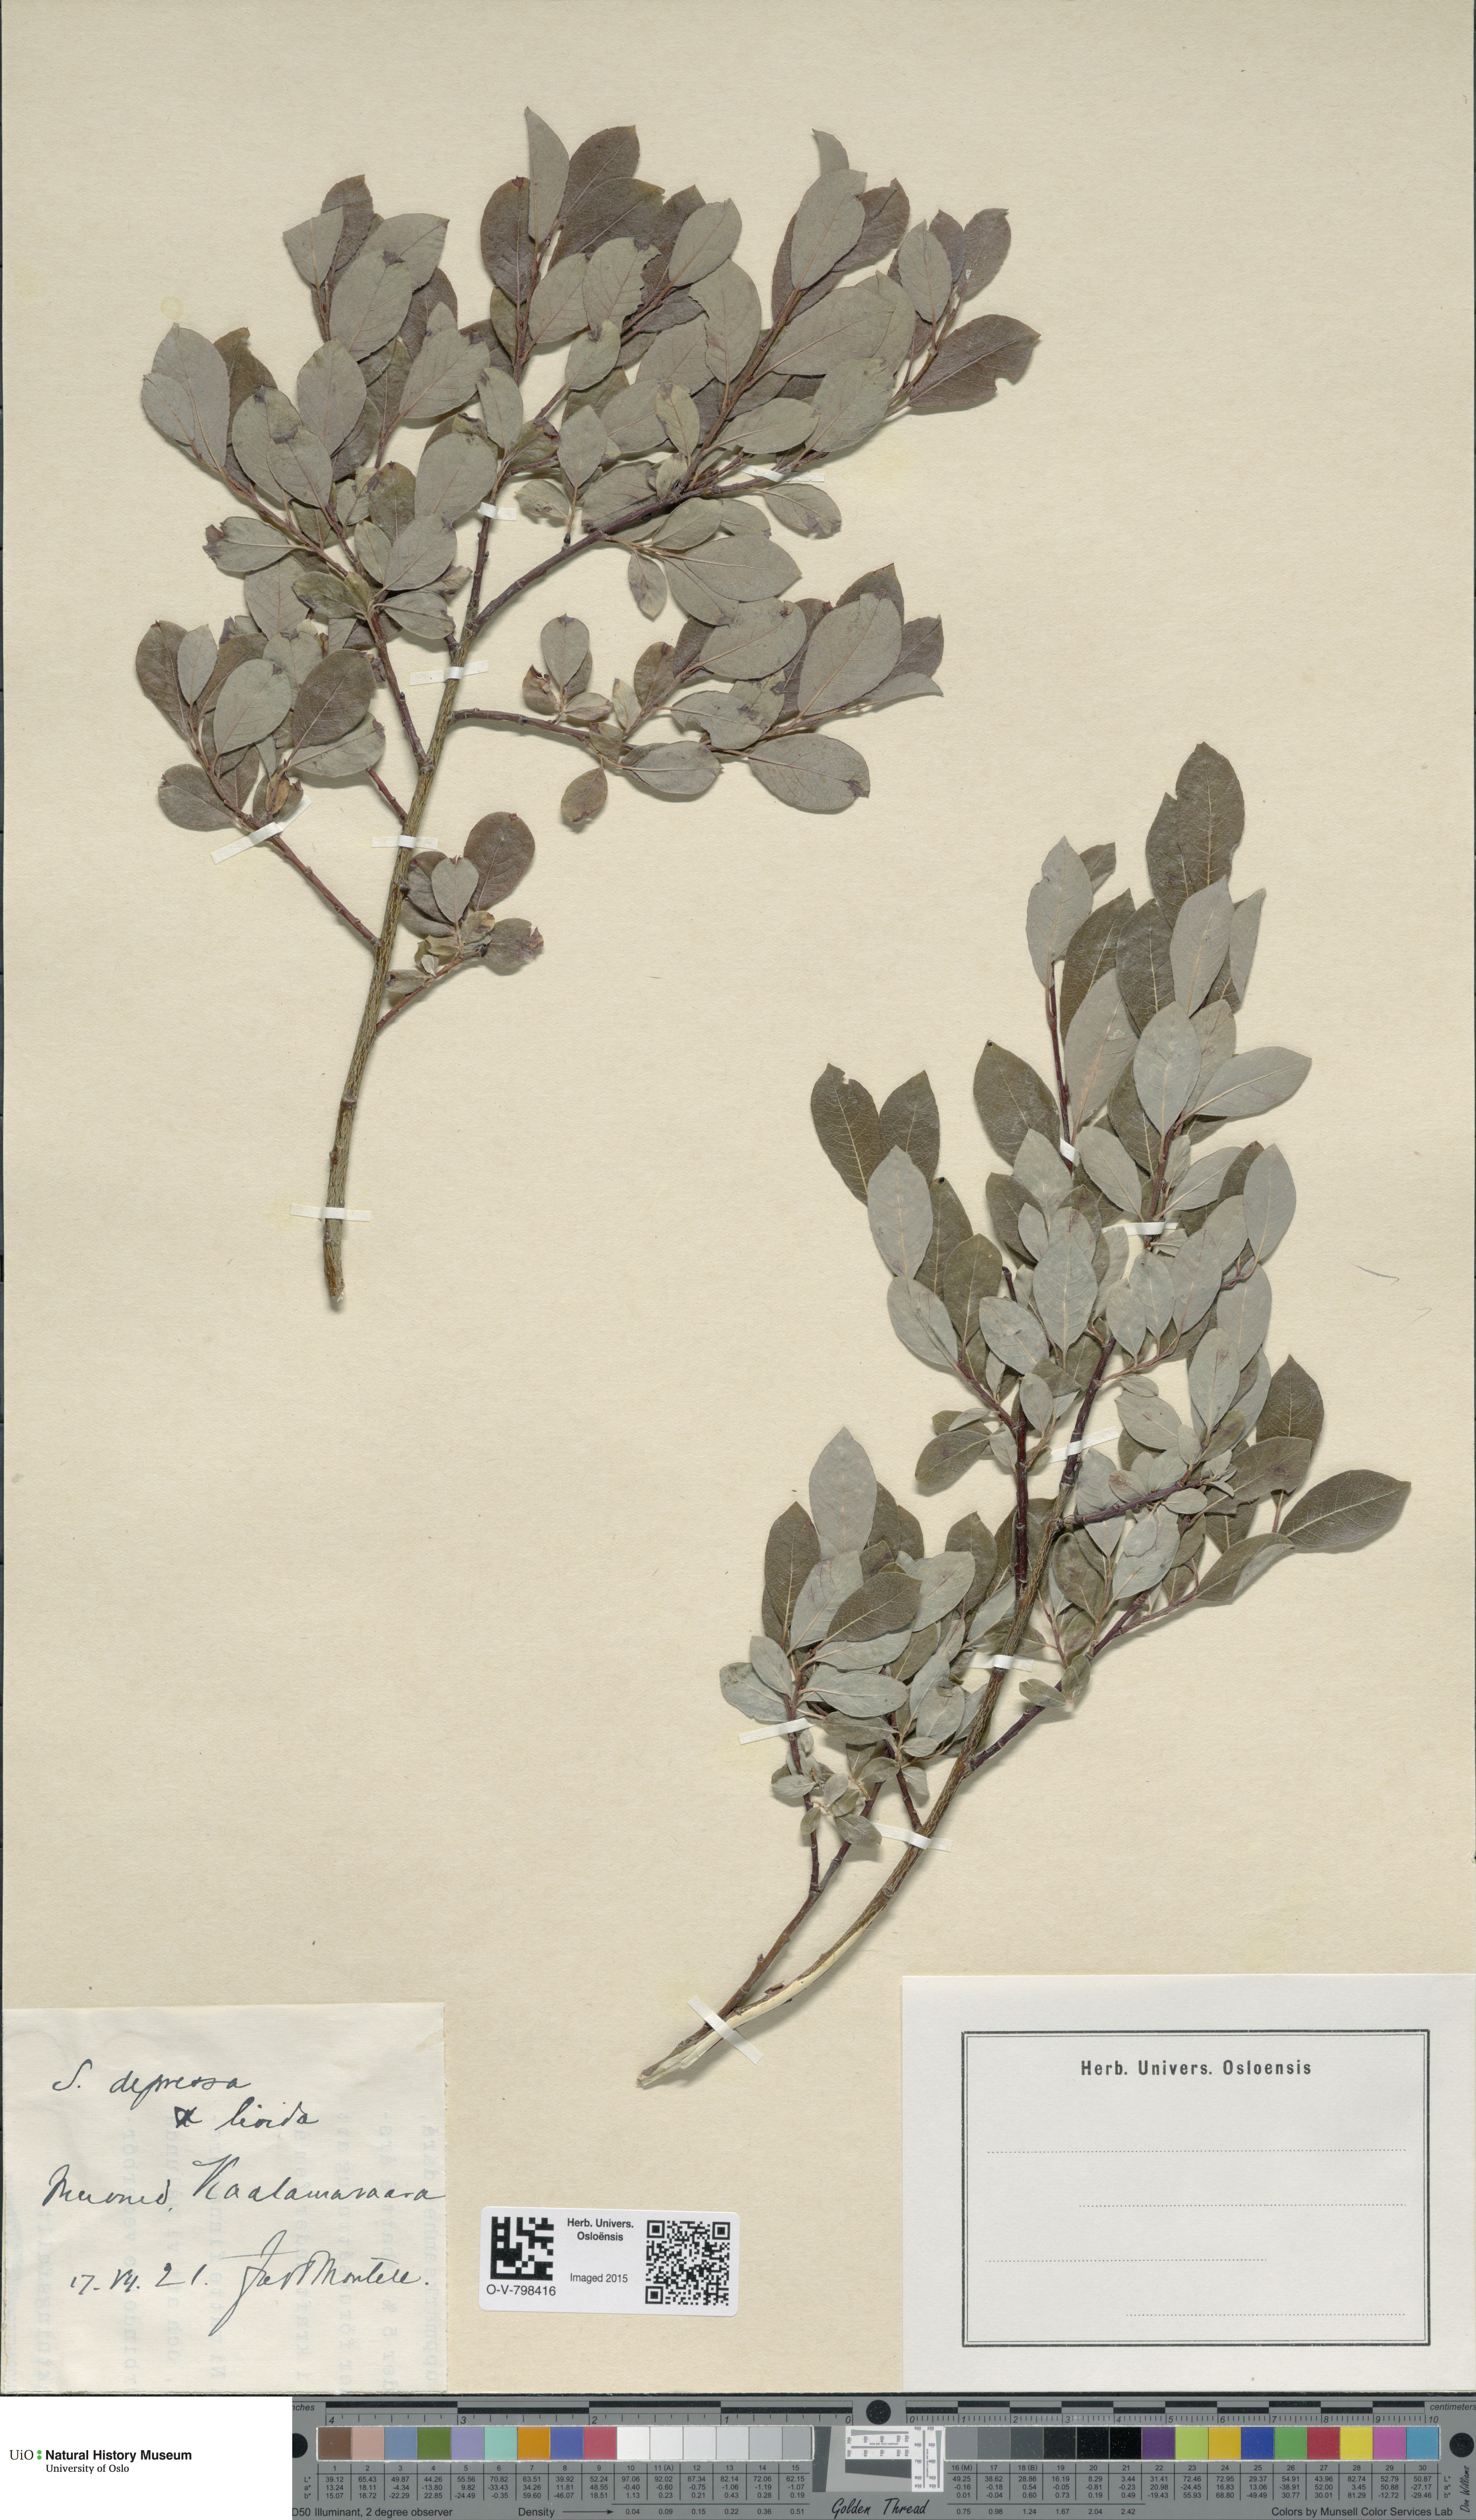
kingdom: Plantae
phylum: Tracheophyta
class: Magnoliopsida
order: Malpighiales
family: Salicaceae
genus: Salix
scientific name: Salix starkeana
